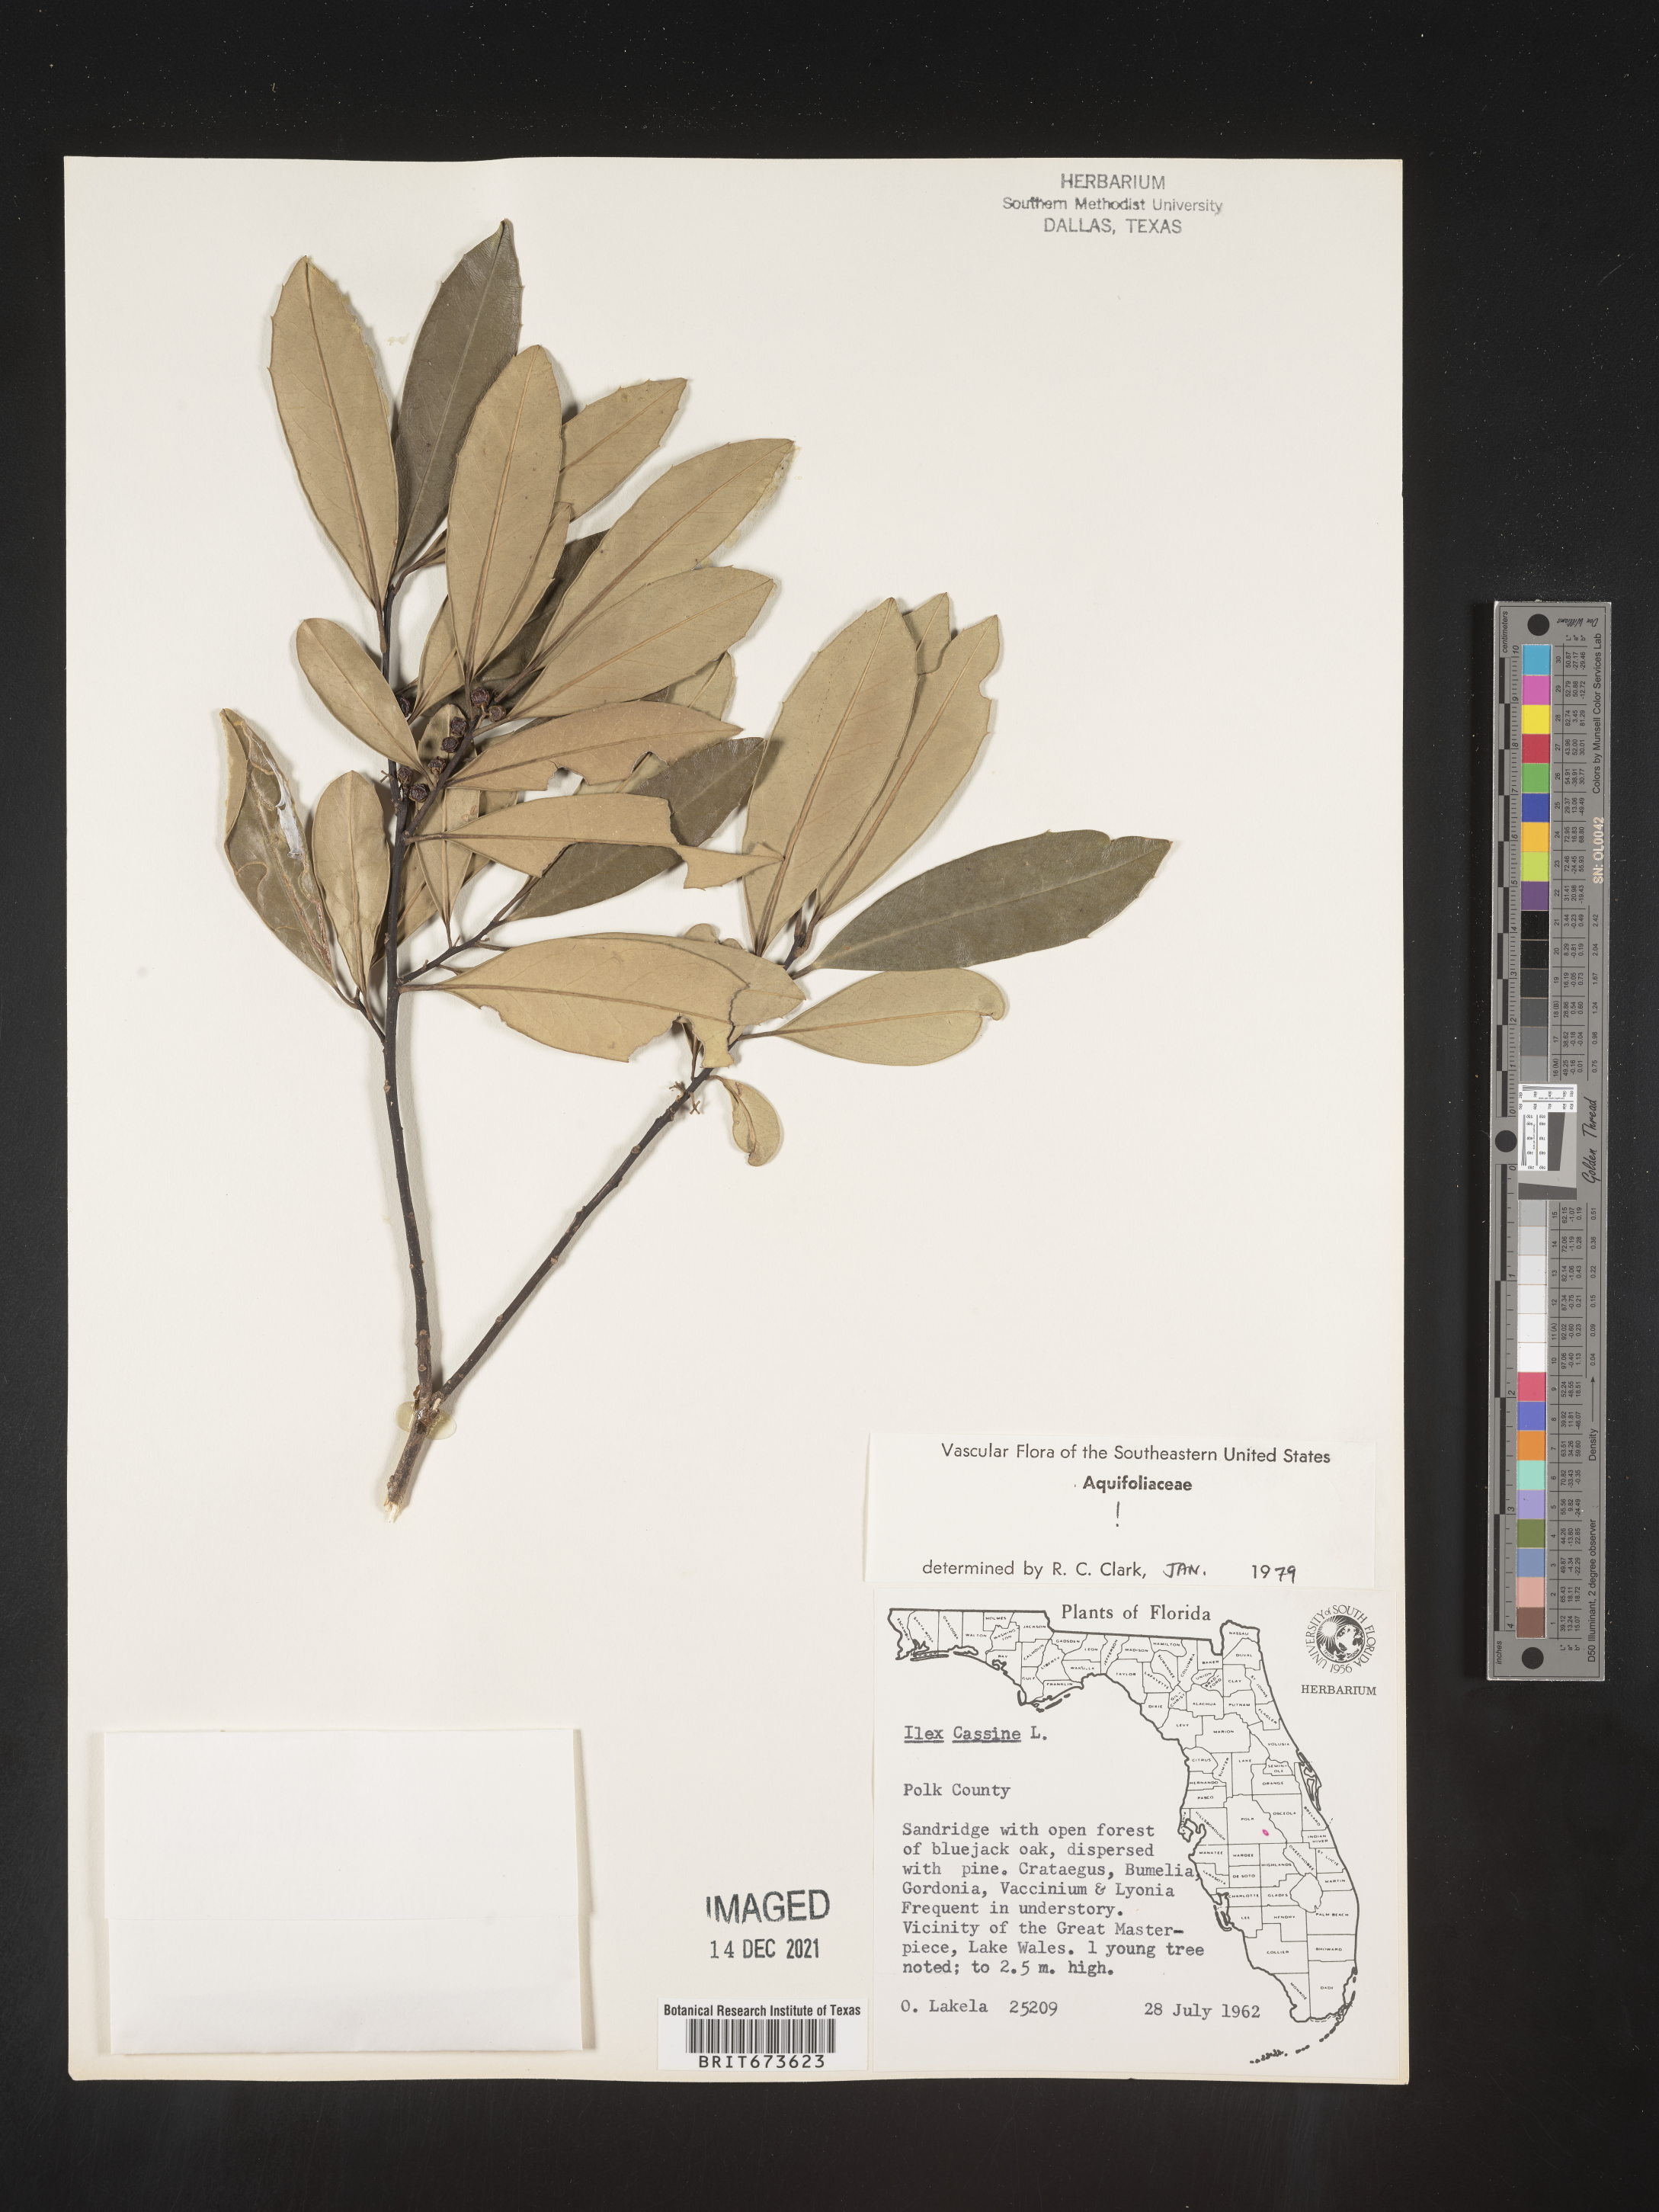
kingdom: Plantae
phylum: Tracheophyta
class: Magnoliopsida
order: Aquifoliales
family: Aquifoliaceae
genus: Ilex
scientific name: Ilex cassine
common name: Dahoon
